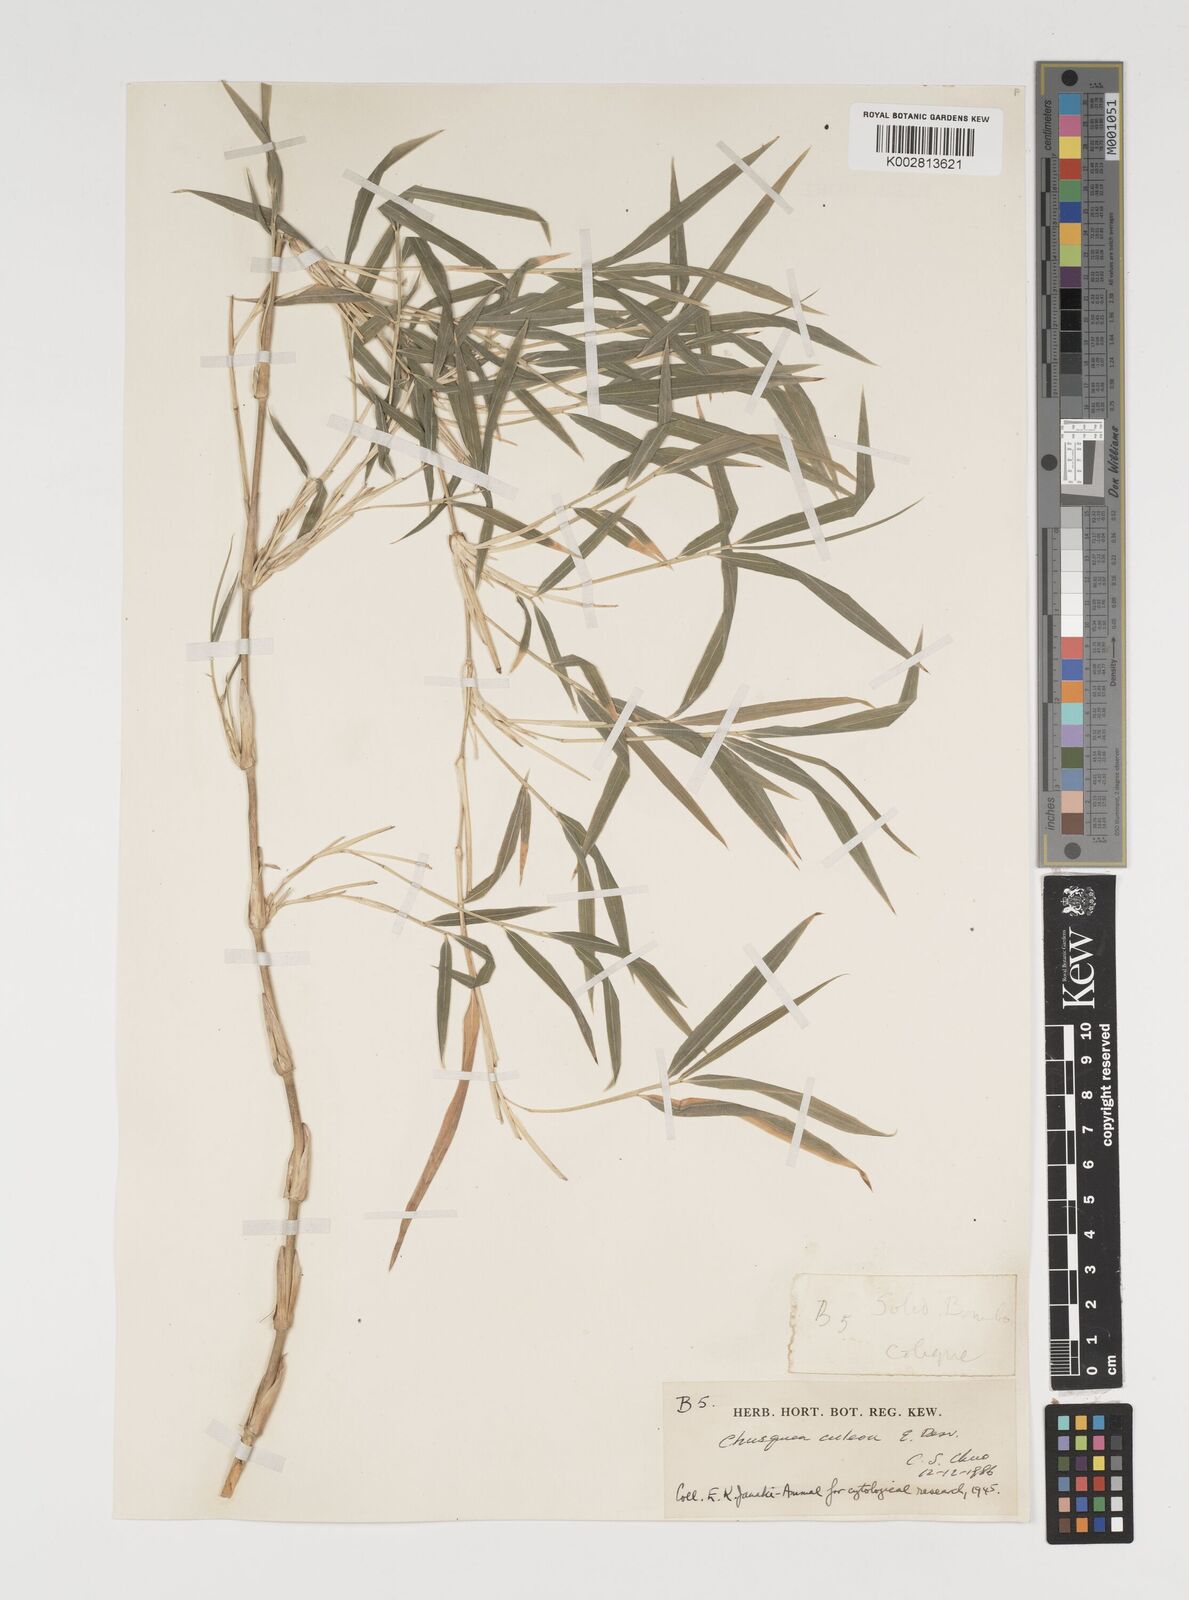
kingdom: Plantae
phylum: Tracheophyta
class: Liliopsida
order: Poales
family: Poaceae
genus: Chusquea
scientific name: Chusquea culeou
